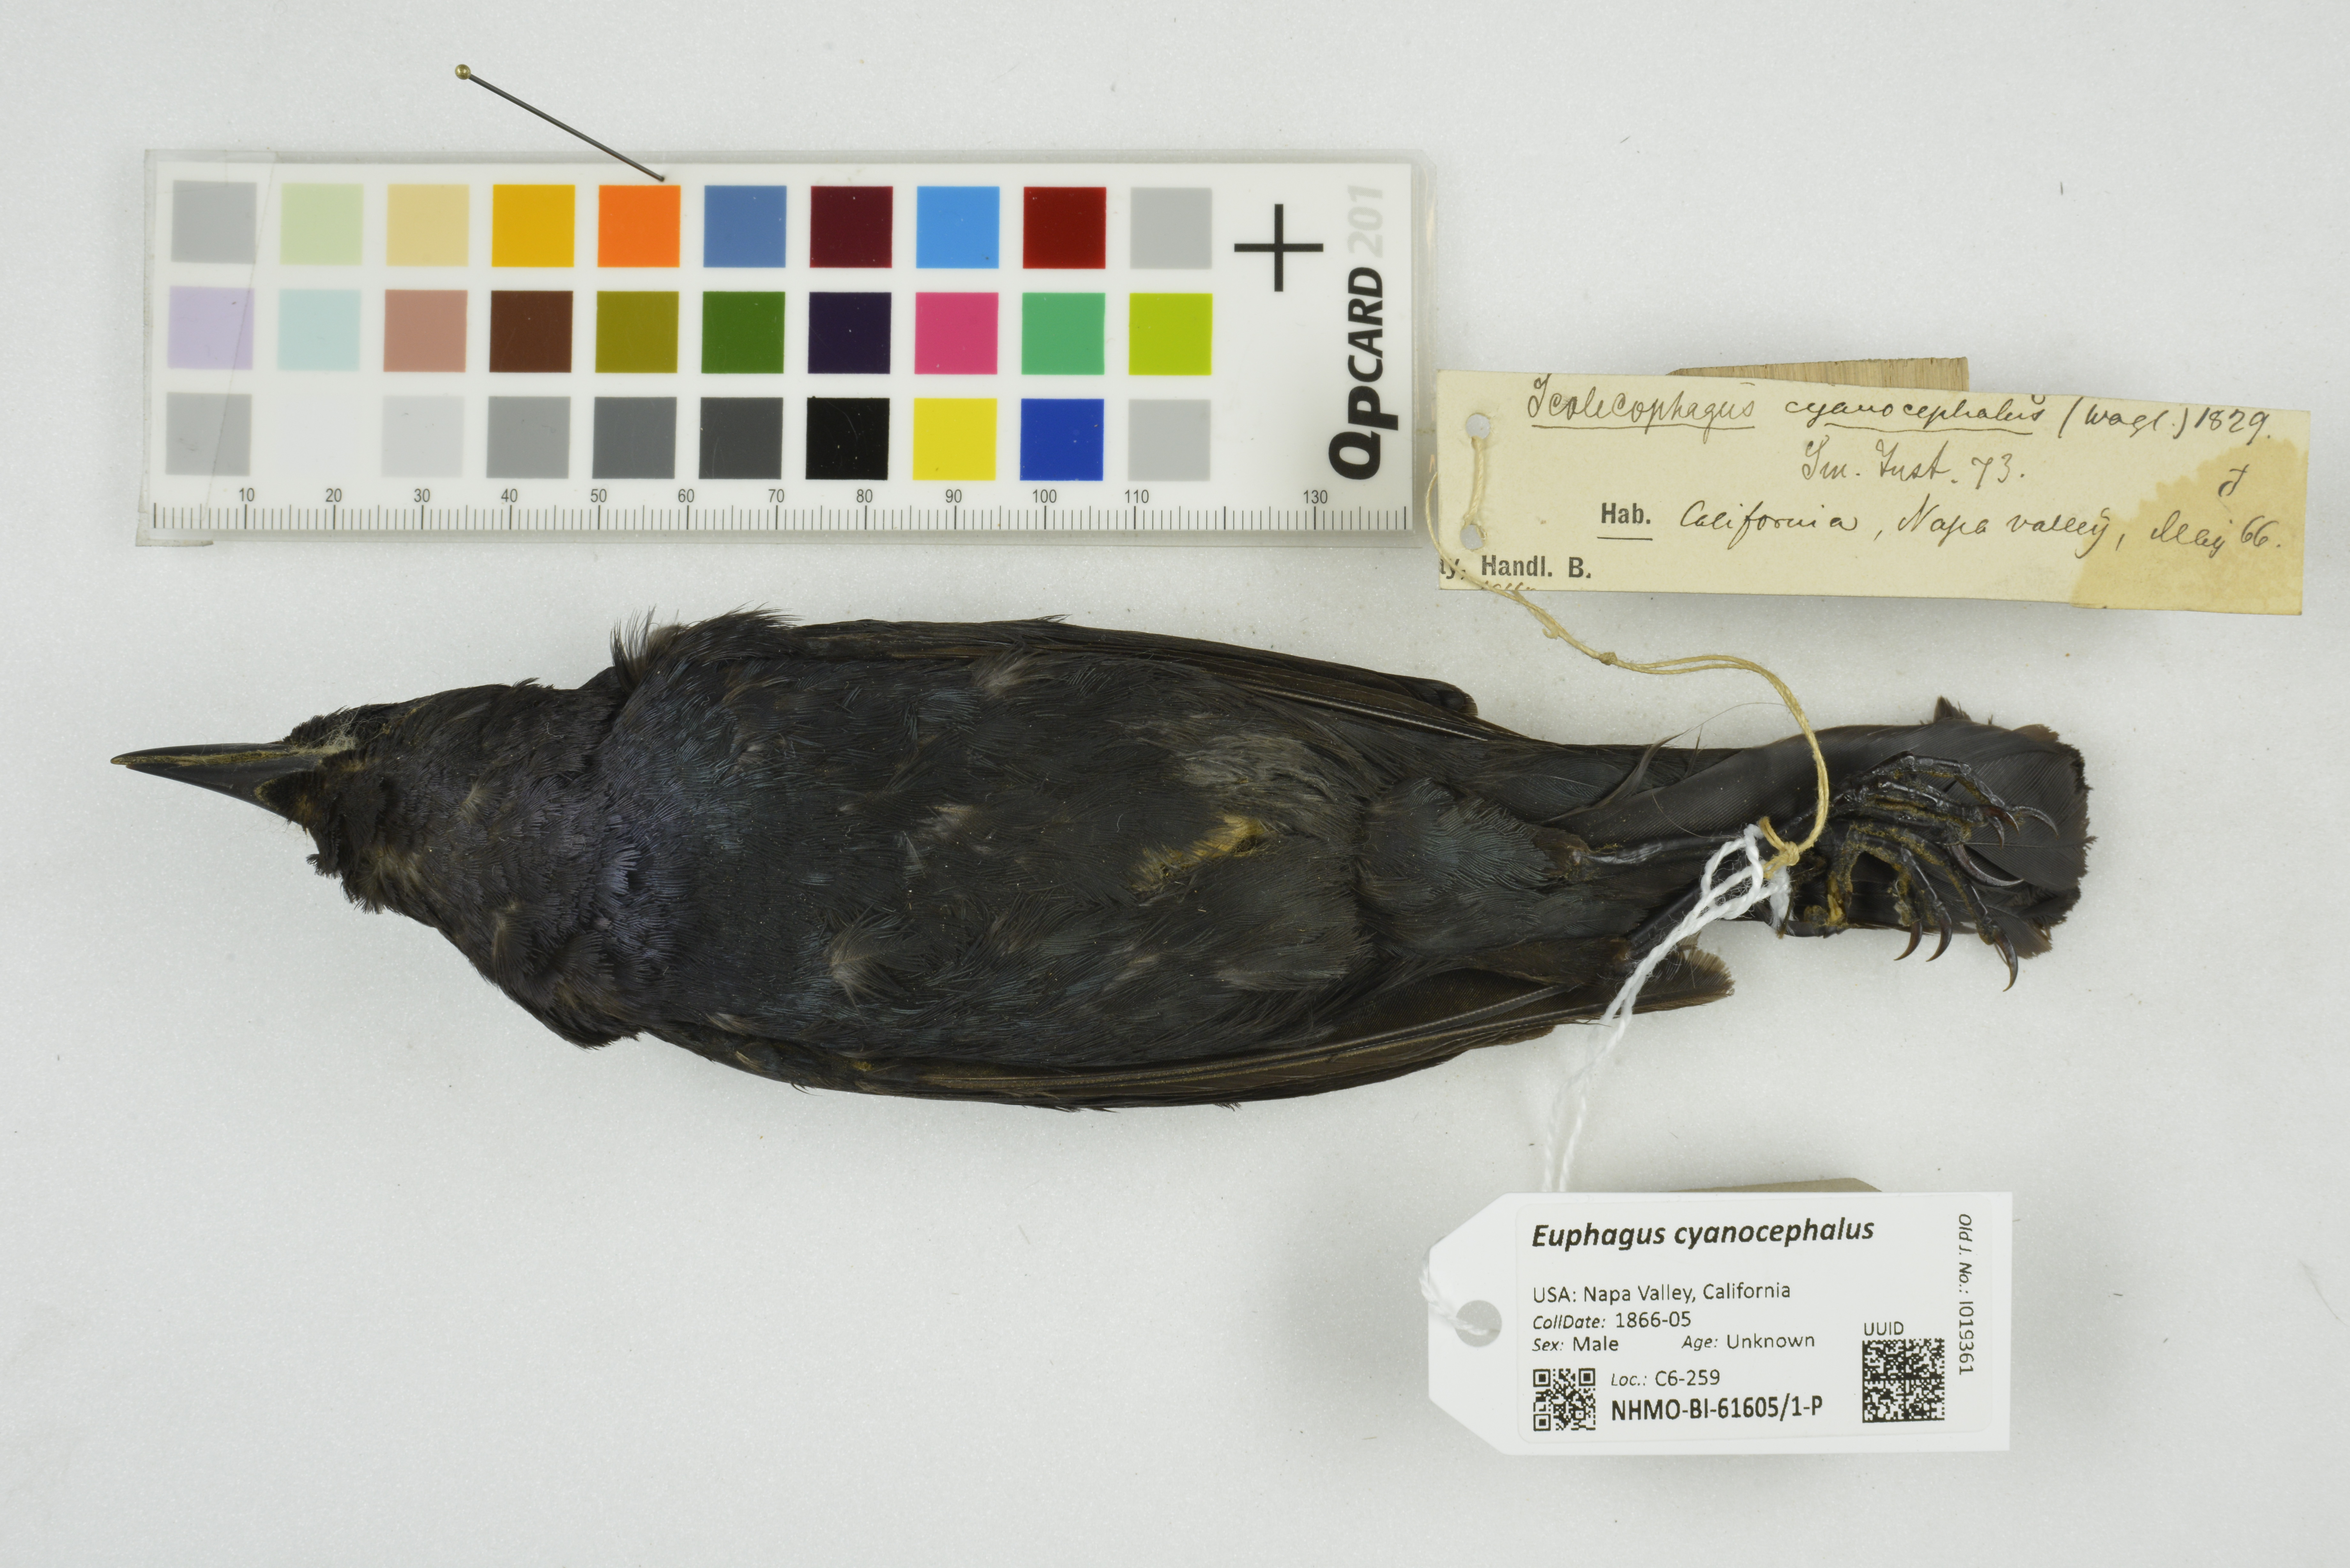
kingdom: Animalia
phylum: Chordata
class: Aves
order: Passeriformes
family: Icteridae
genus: Euphagus
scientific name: Euphagus cyanocephalus
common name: Brewer's blackbird
